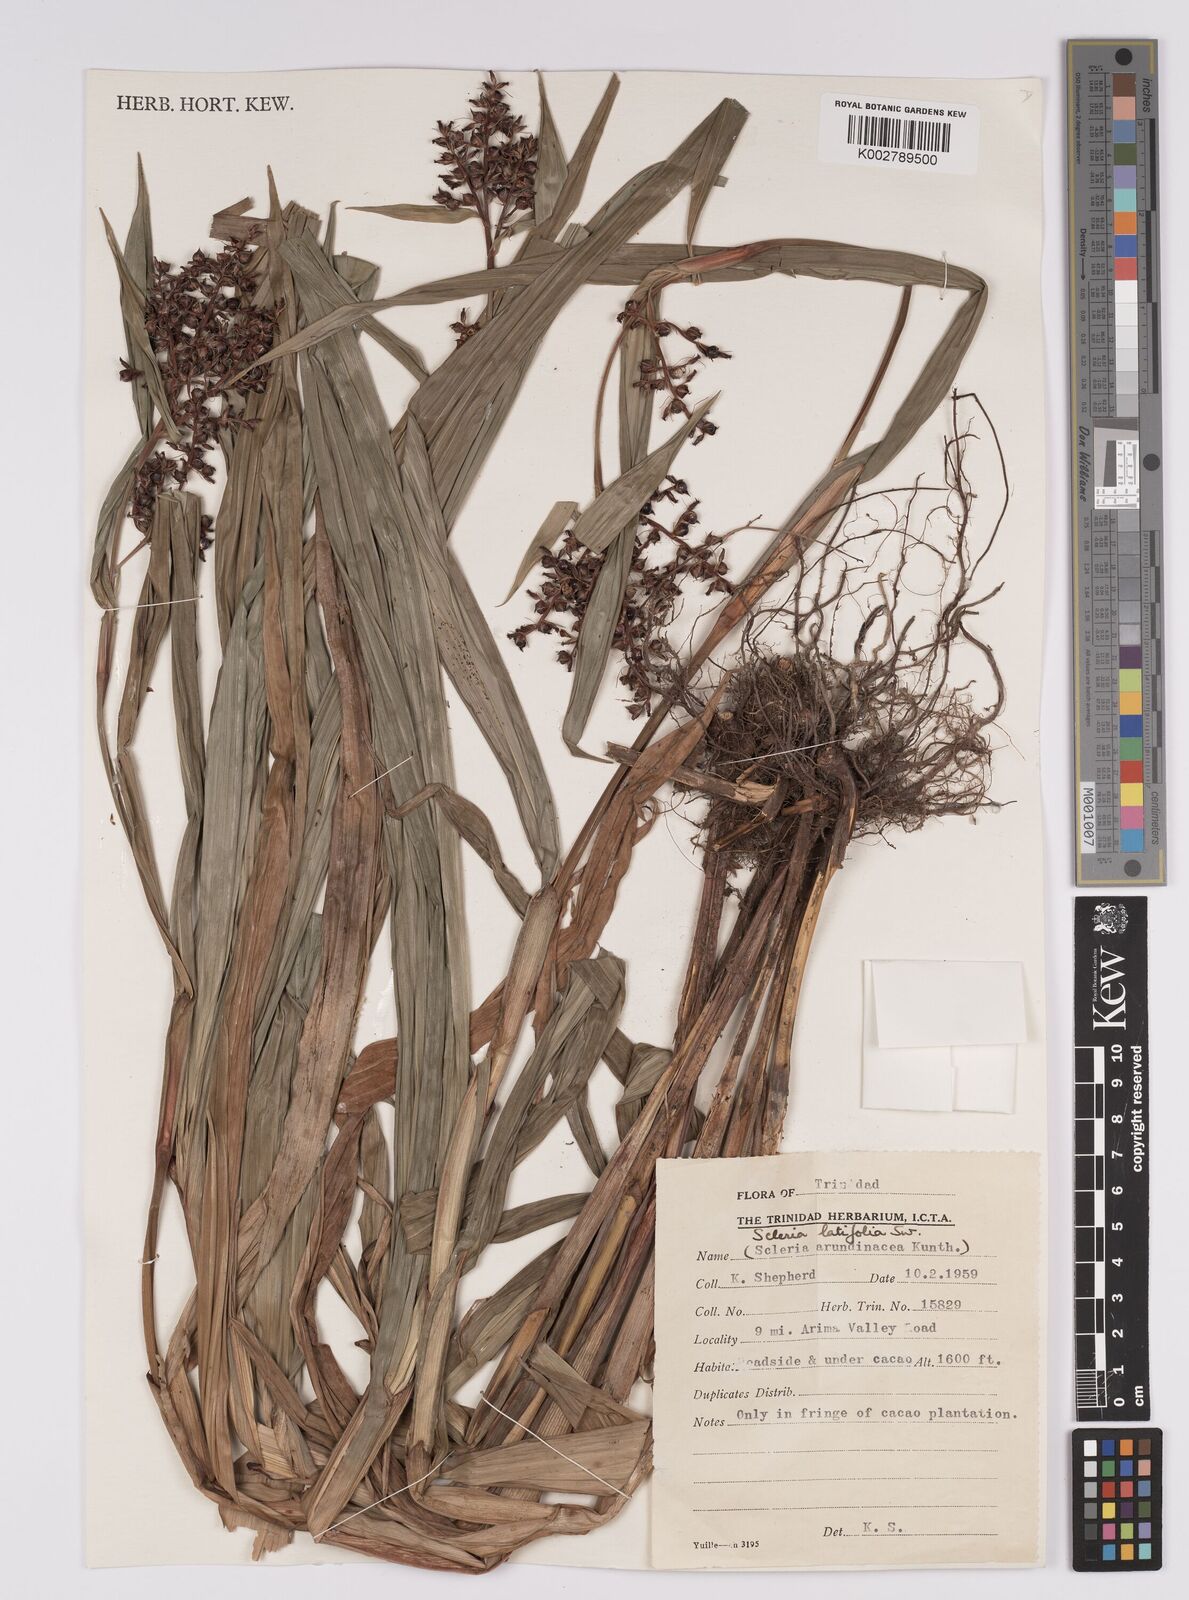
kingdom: Plantae
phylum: Tracheophyta
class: Liliopsida
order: Poales
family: Cyperaceae
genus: Scleria
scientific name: Scleria latifolia
